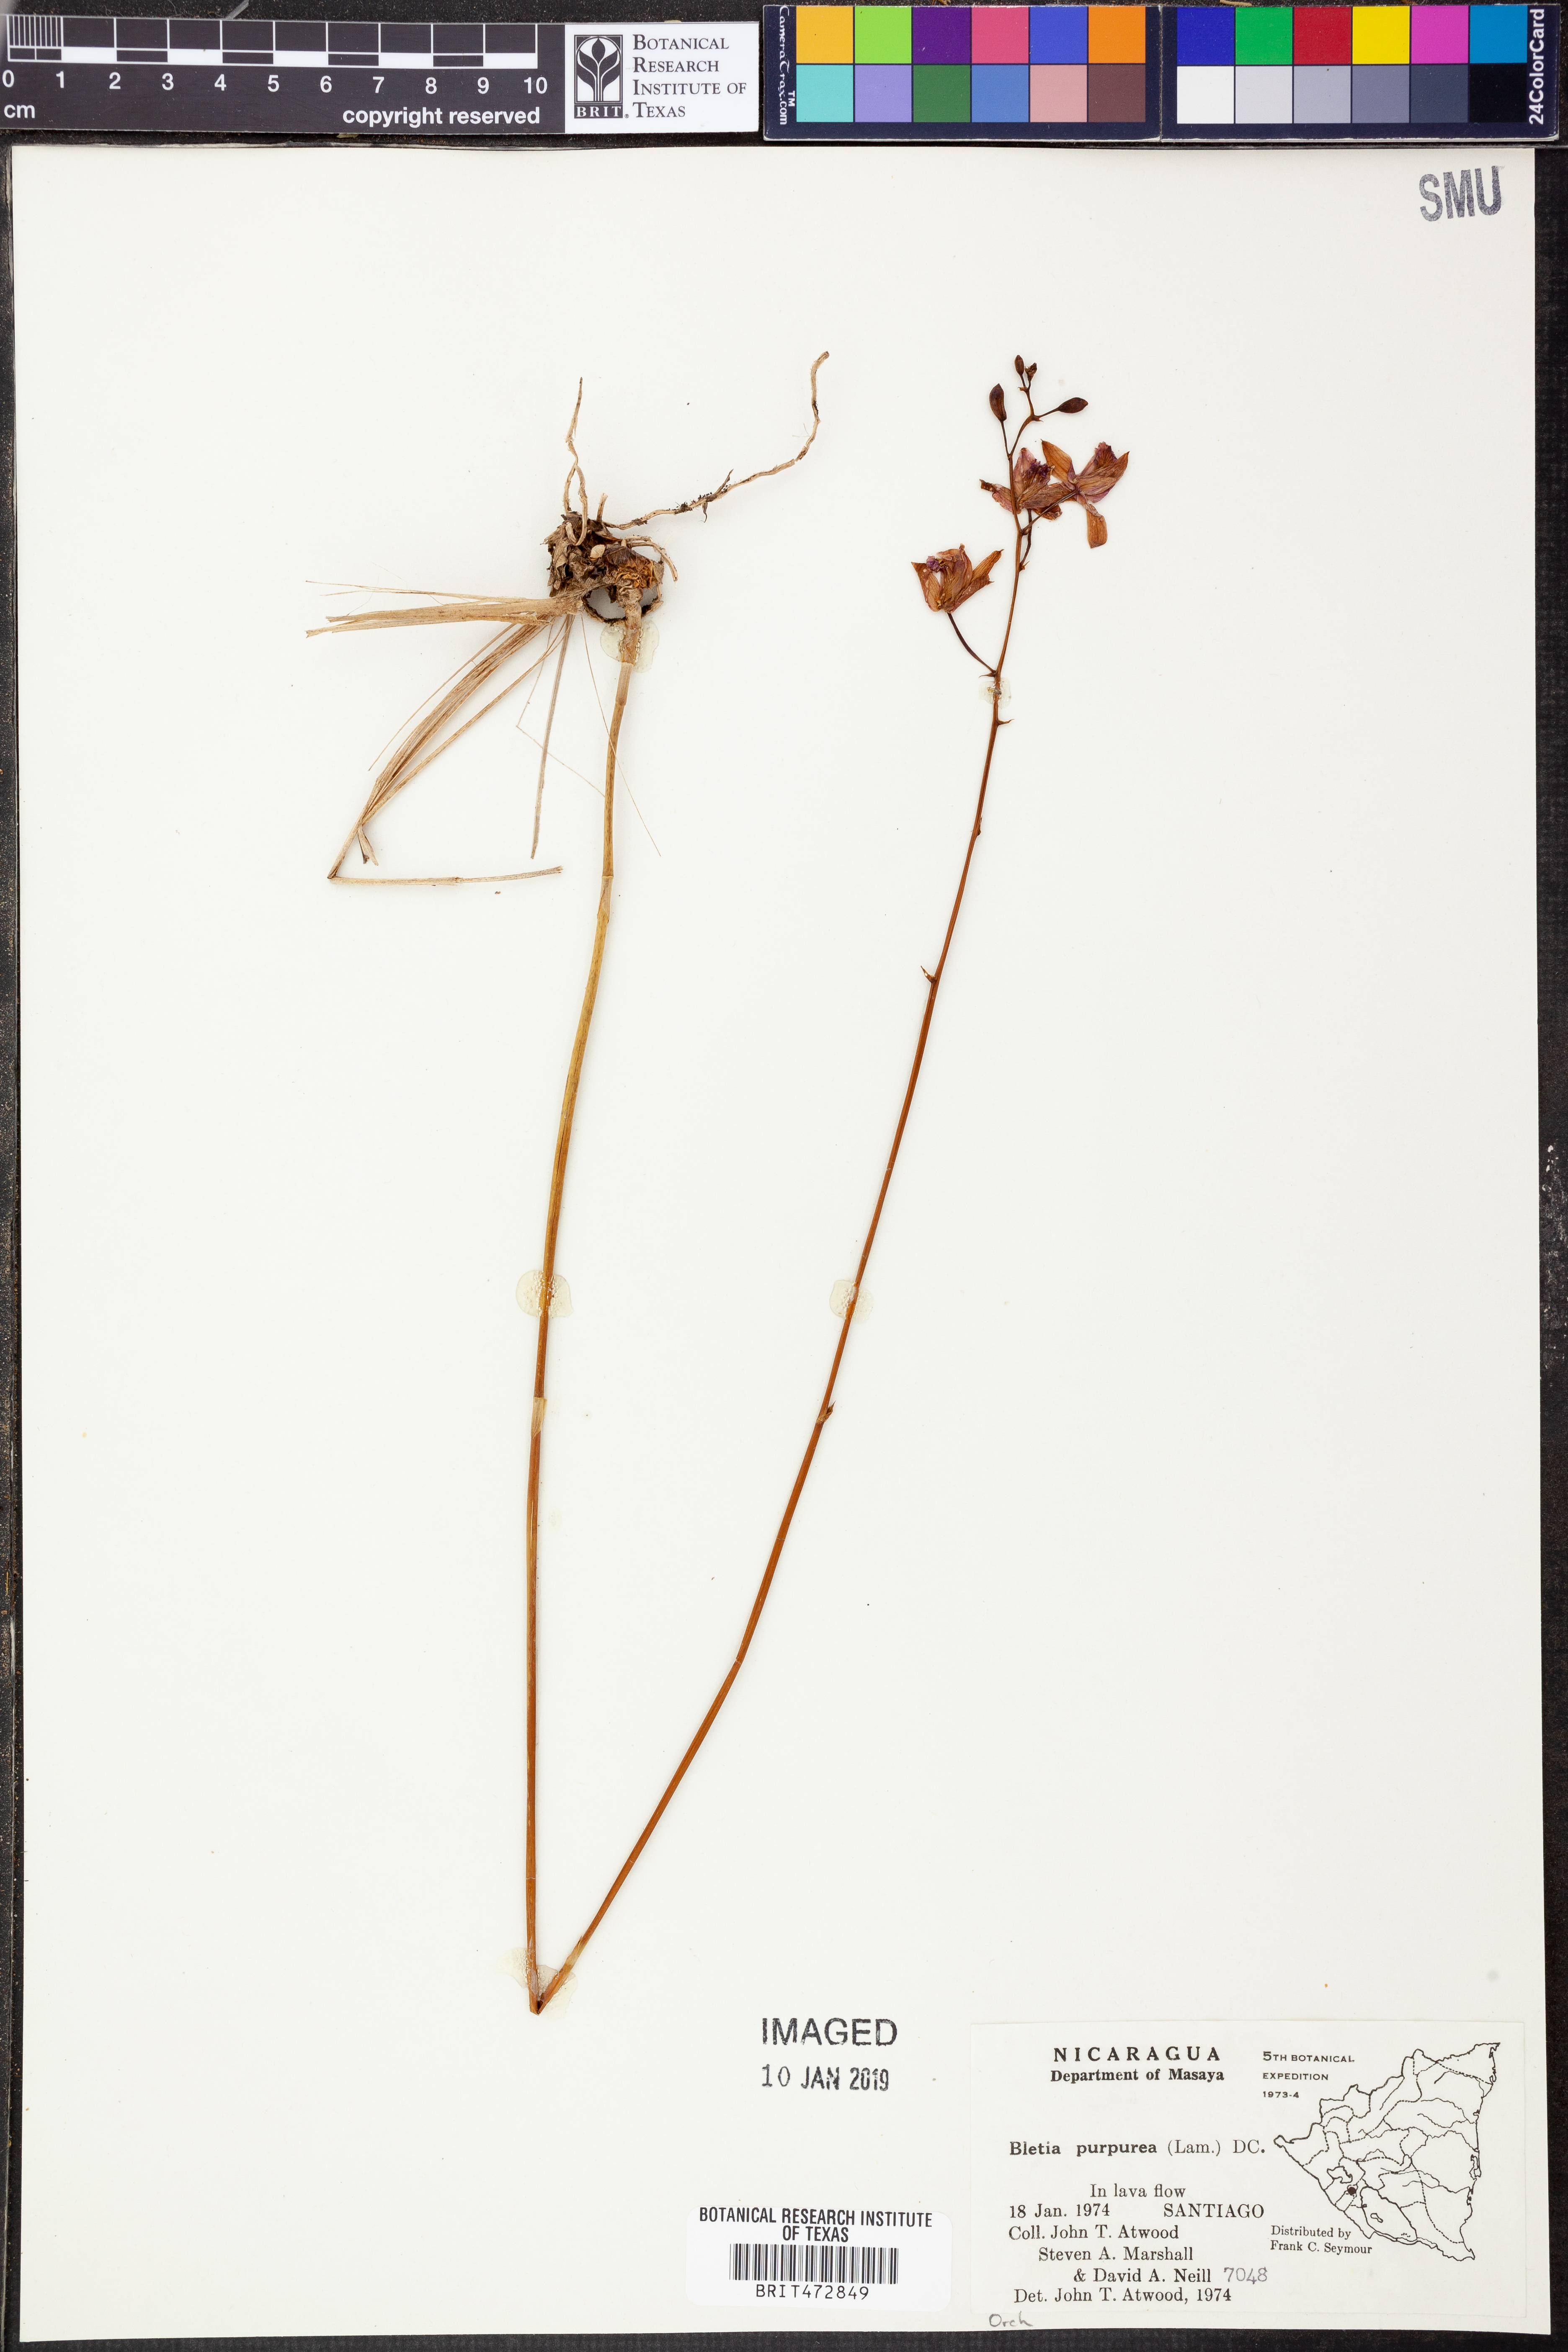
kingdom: Plantae
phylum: Tracheophyta
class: Liliopsida
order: Asparagales
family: Orchidaceae
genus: Bletia
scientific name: Bletia purpurea
